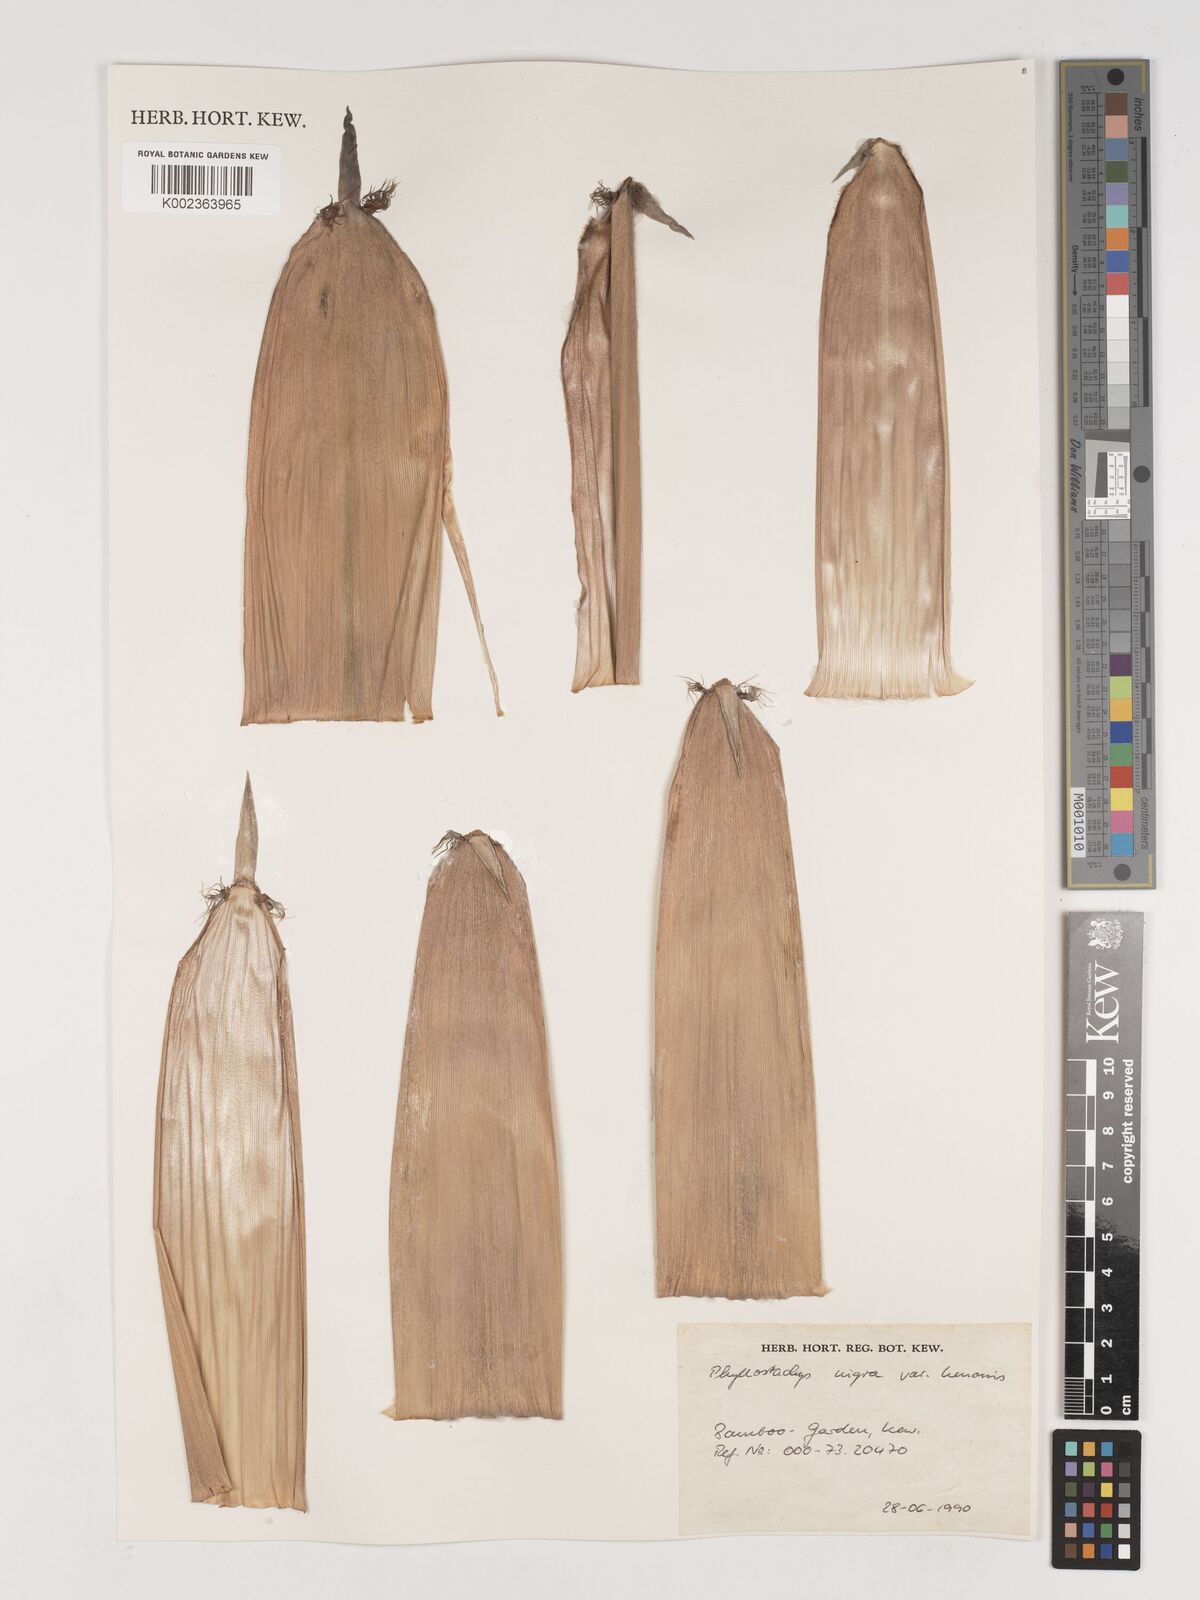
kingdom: Plantae
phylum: Tracheophyta
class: Liliopsida
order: Poales
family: Poaceae
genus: Phyllostachys
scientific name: Phyllostachys nigra
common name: Black bamboo
